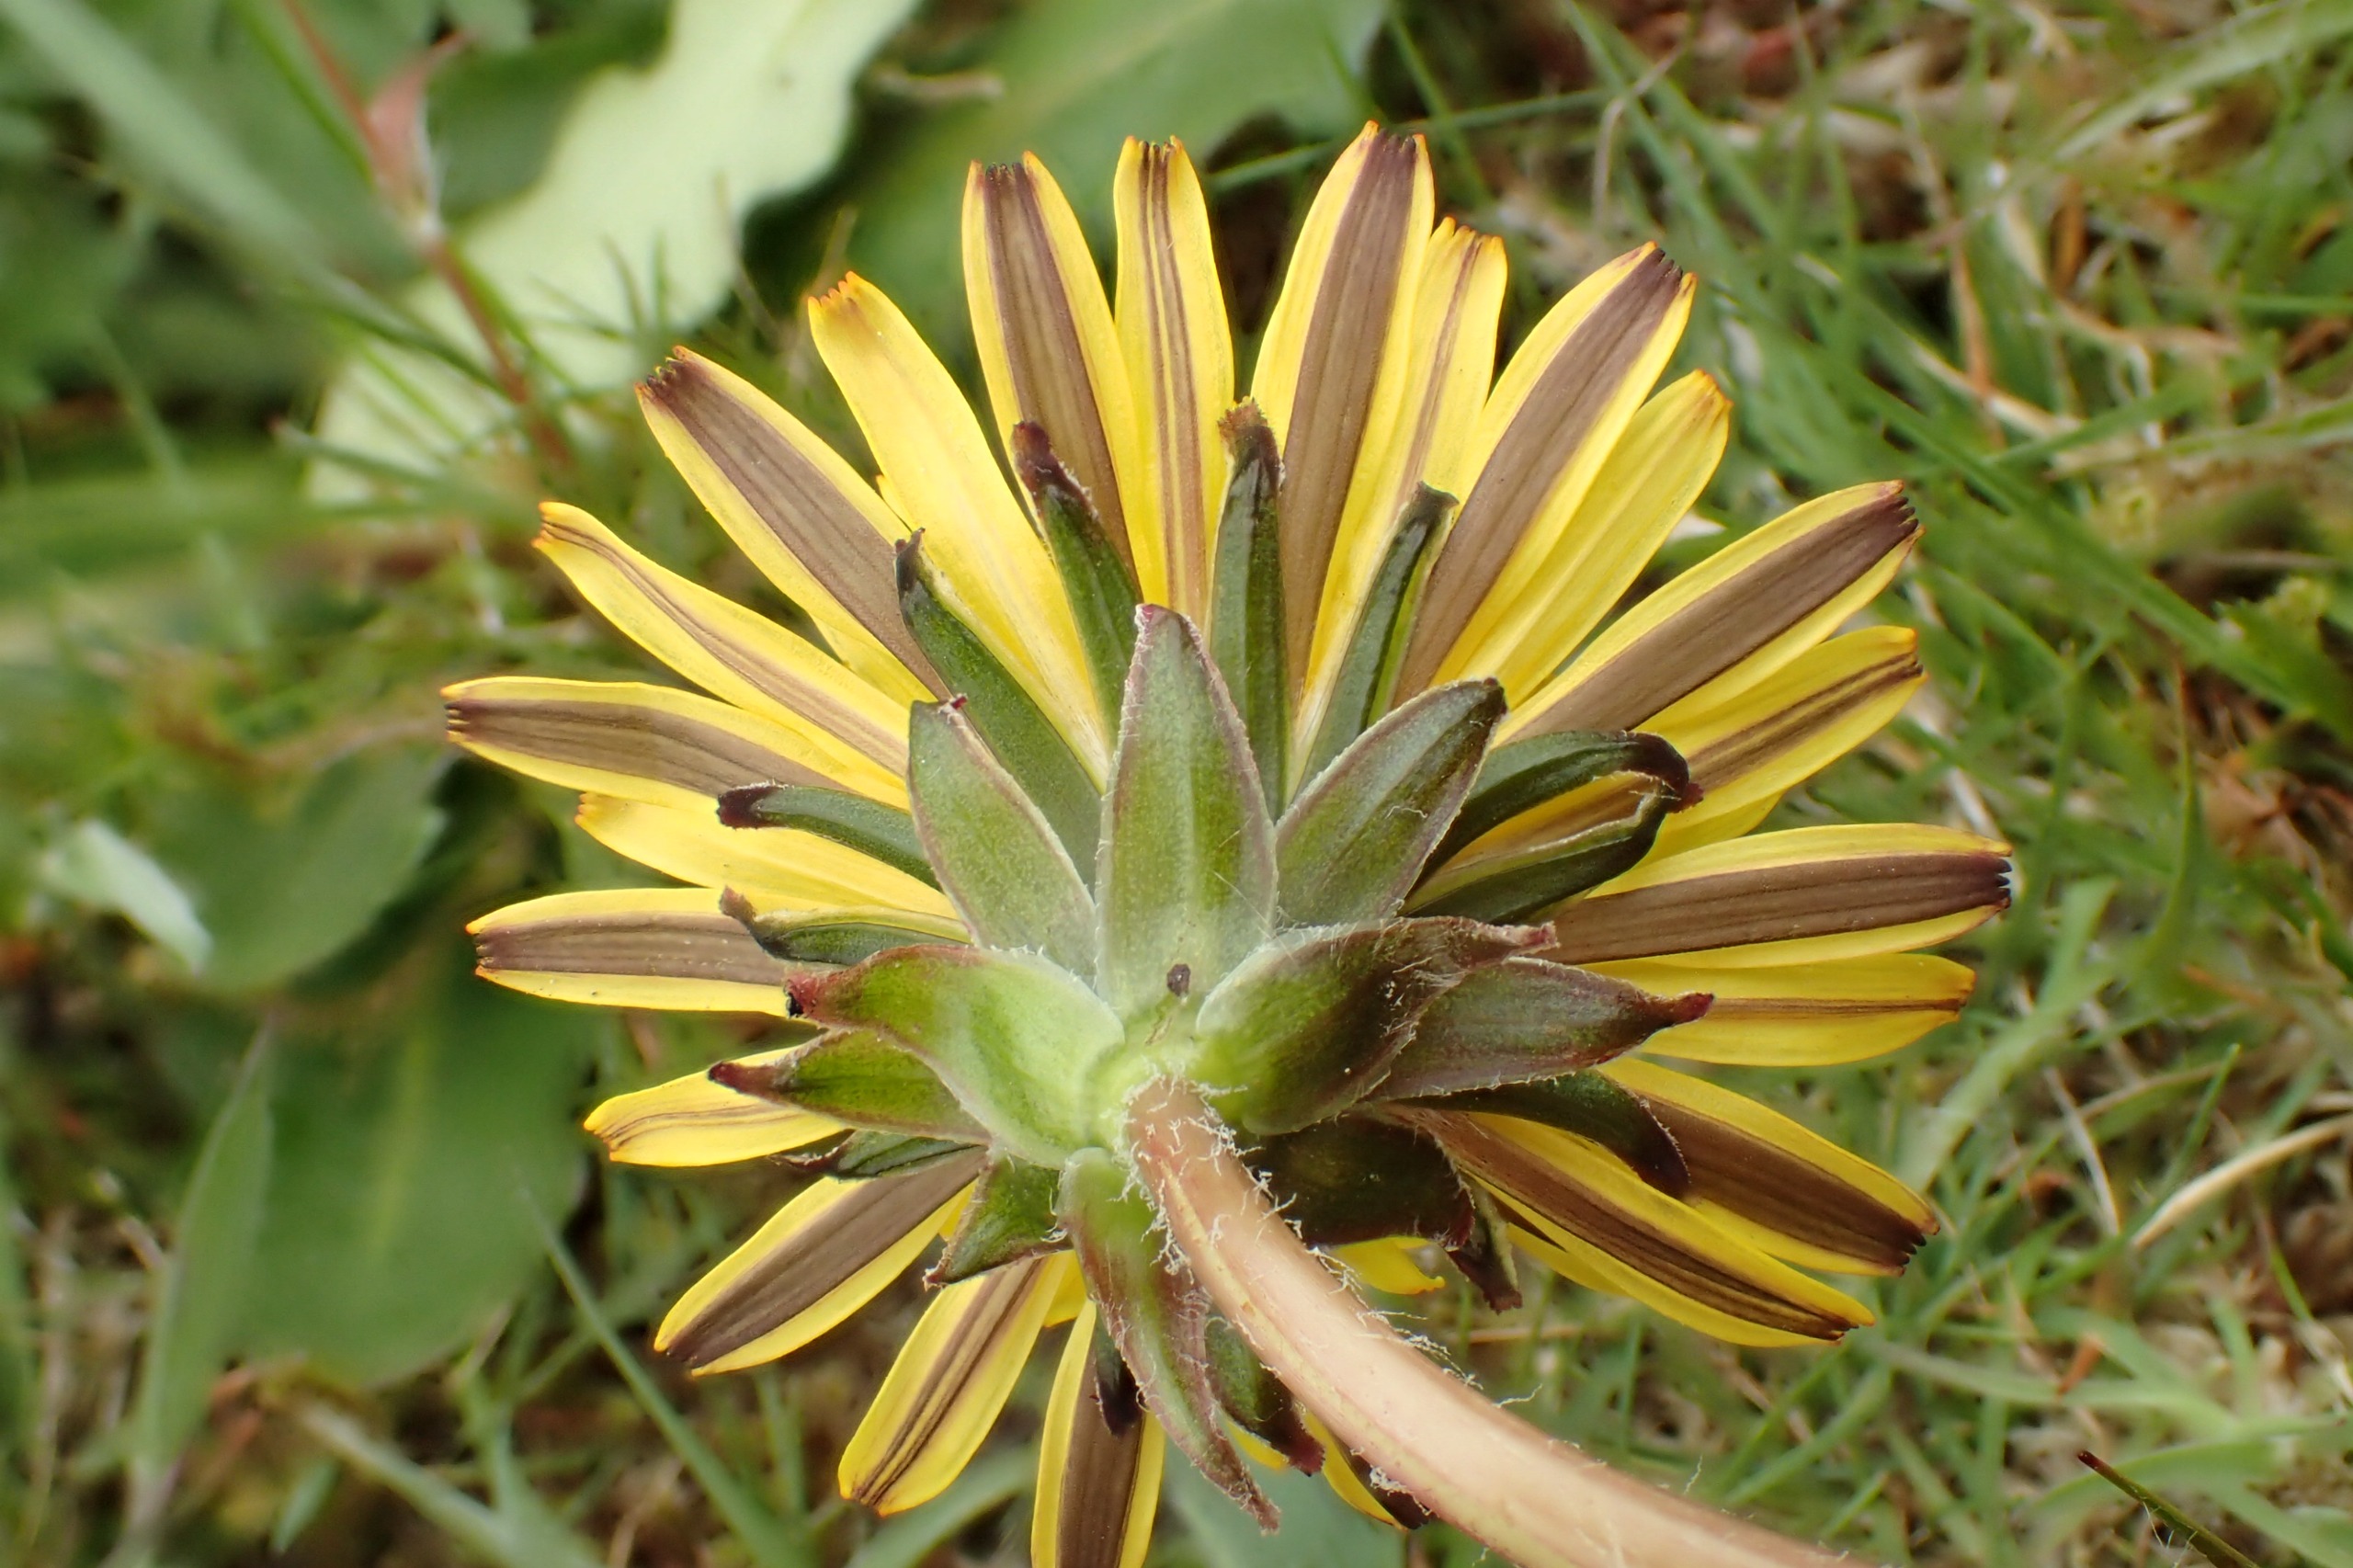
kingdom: Plantae
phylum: Tracheophyta
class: Magnoliopsida
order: Asterales
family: Asteraceae
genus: Taraxacum
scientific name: Taraxacum
